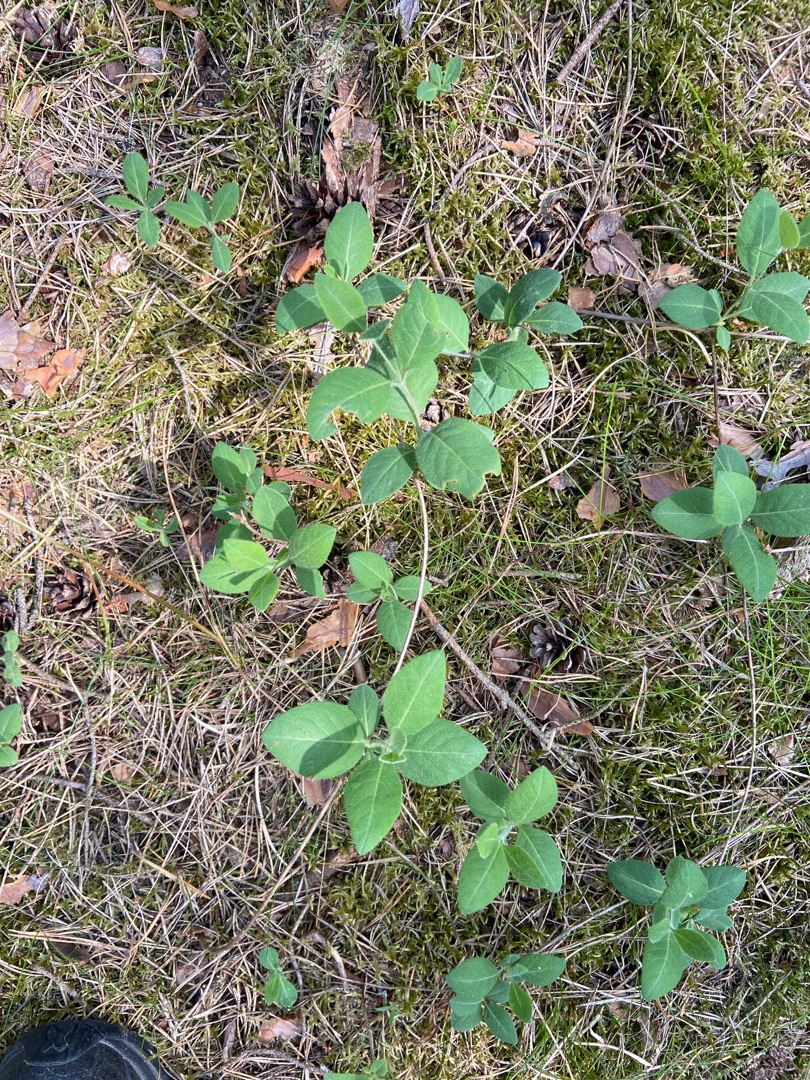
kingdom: Plantae
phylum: Tracheophyta
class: Magnoliopsida
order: Dipsacales
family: Caprifoliaceae
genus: Lonicera
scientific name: Lonicera periclymenum
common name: Almindelig gedeblad
